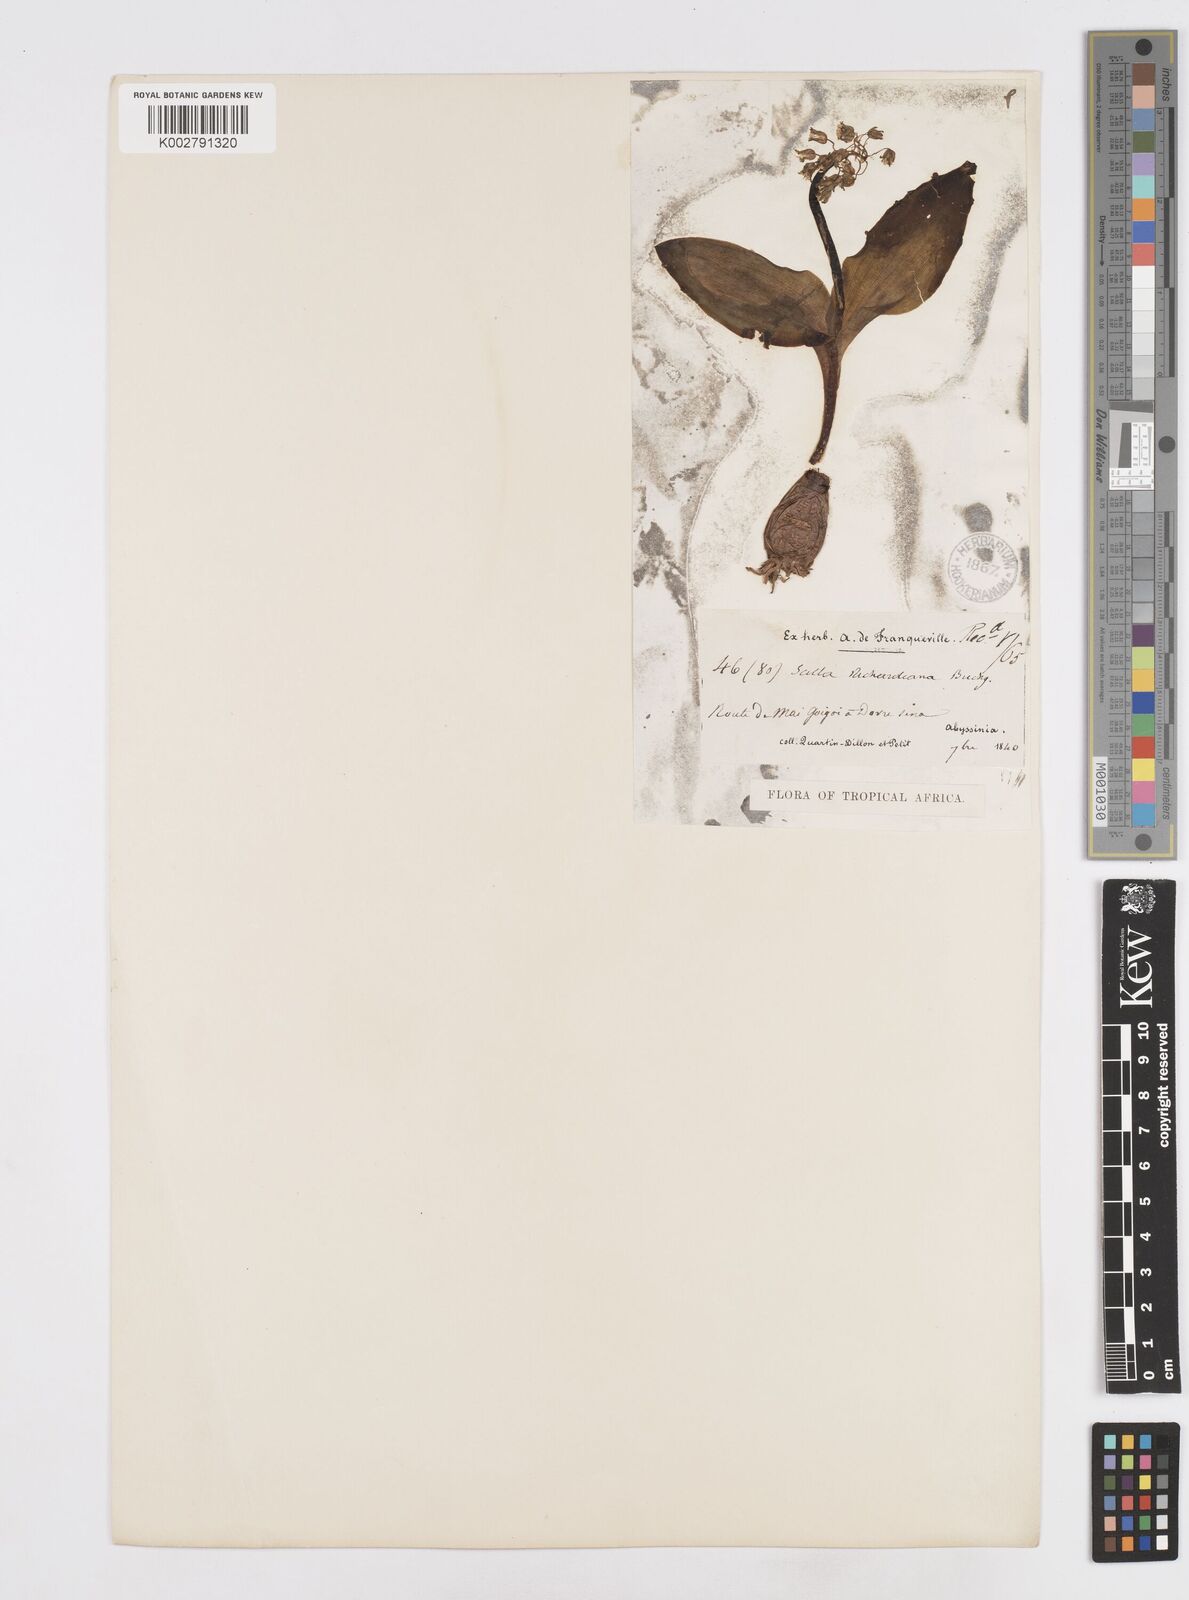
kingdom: Plantae
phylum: Tracheophyta
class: Liliopsida
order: Asparagales
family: Asparagaceae
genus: Ledebouria
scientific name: Ledebouria revoluta
